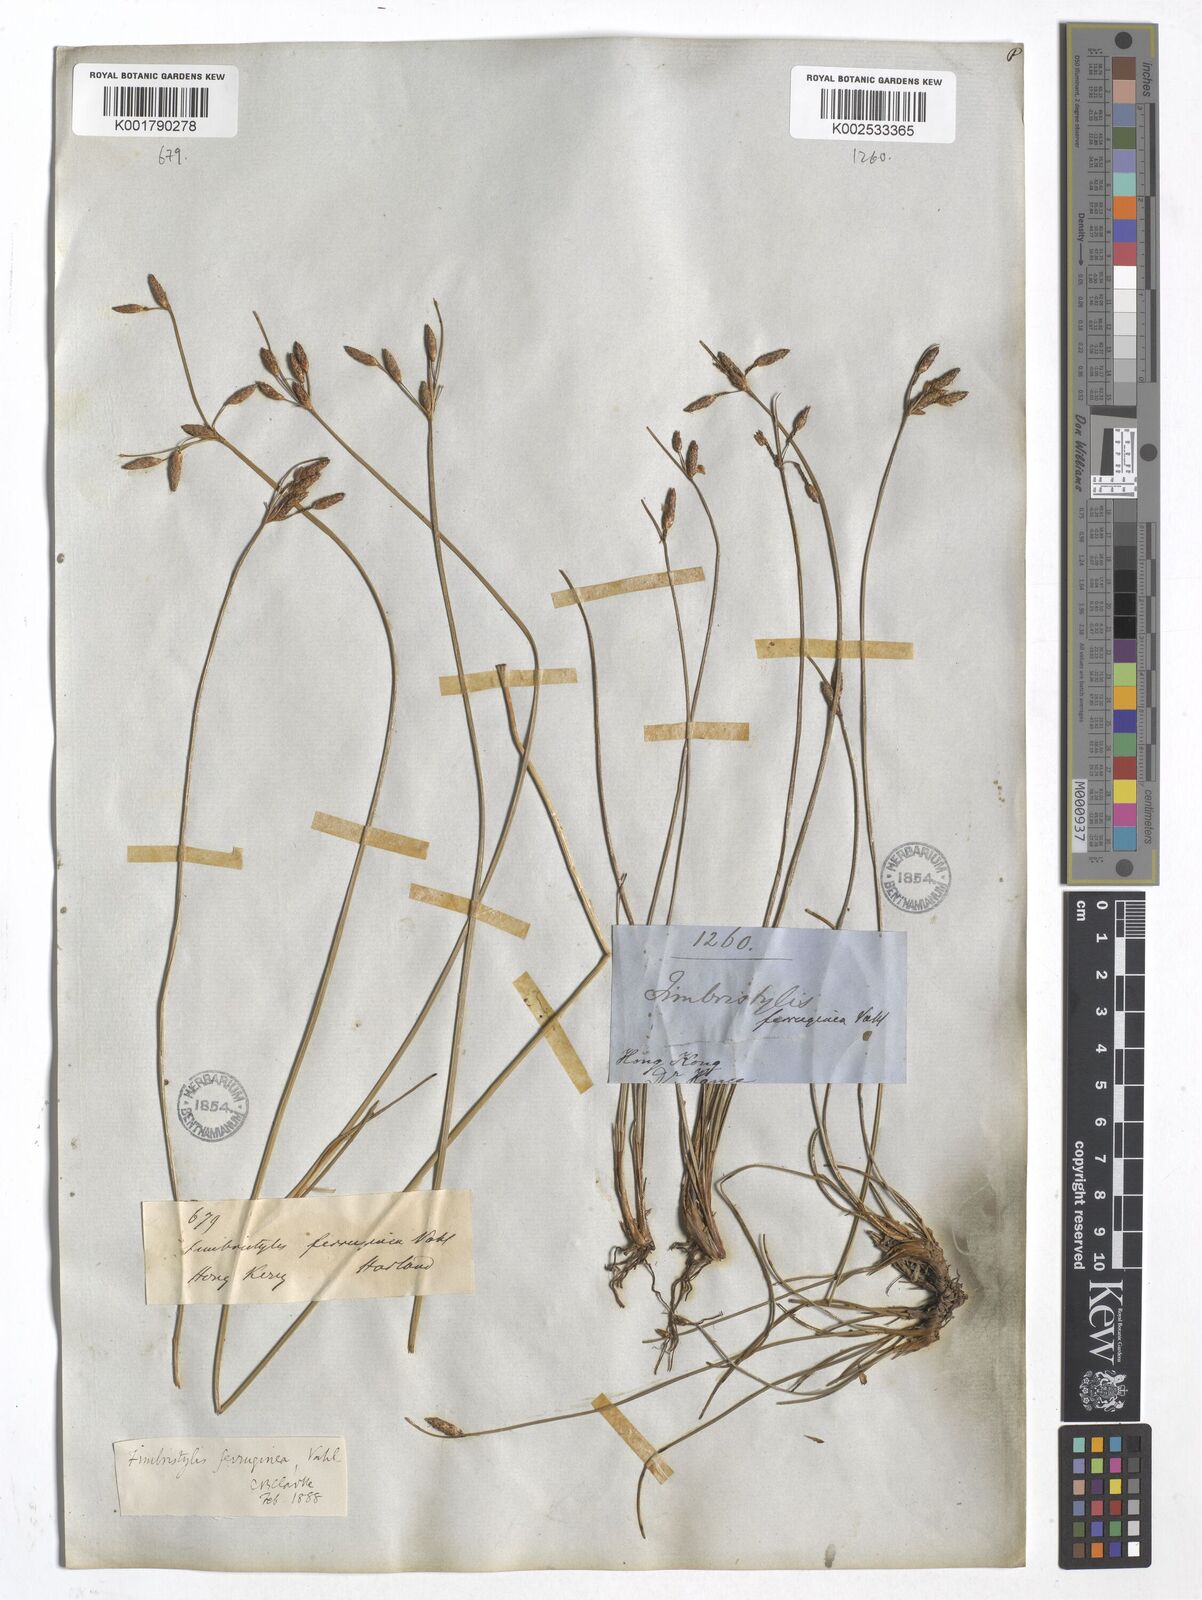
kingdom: Plantae
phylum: Tracheophyta
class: Liliopsida
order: Poales
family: Cyperaceae
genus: Fimbristylis
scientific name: Fimbristylis ferruginea
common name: West indian fimbry
